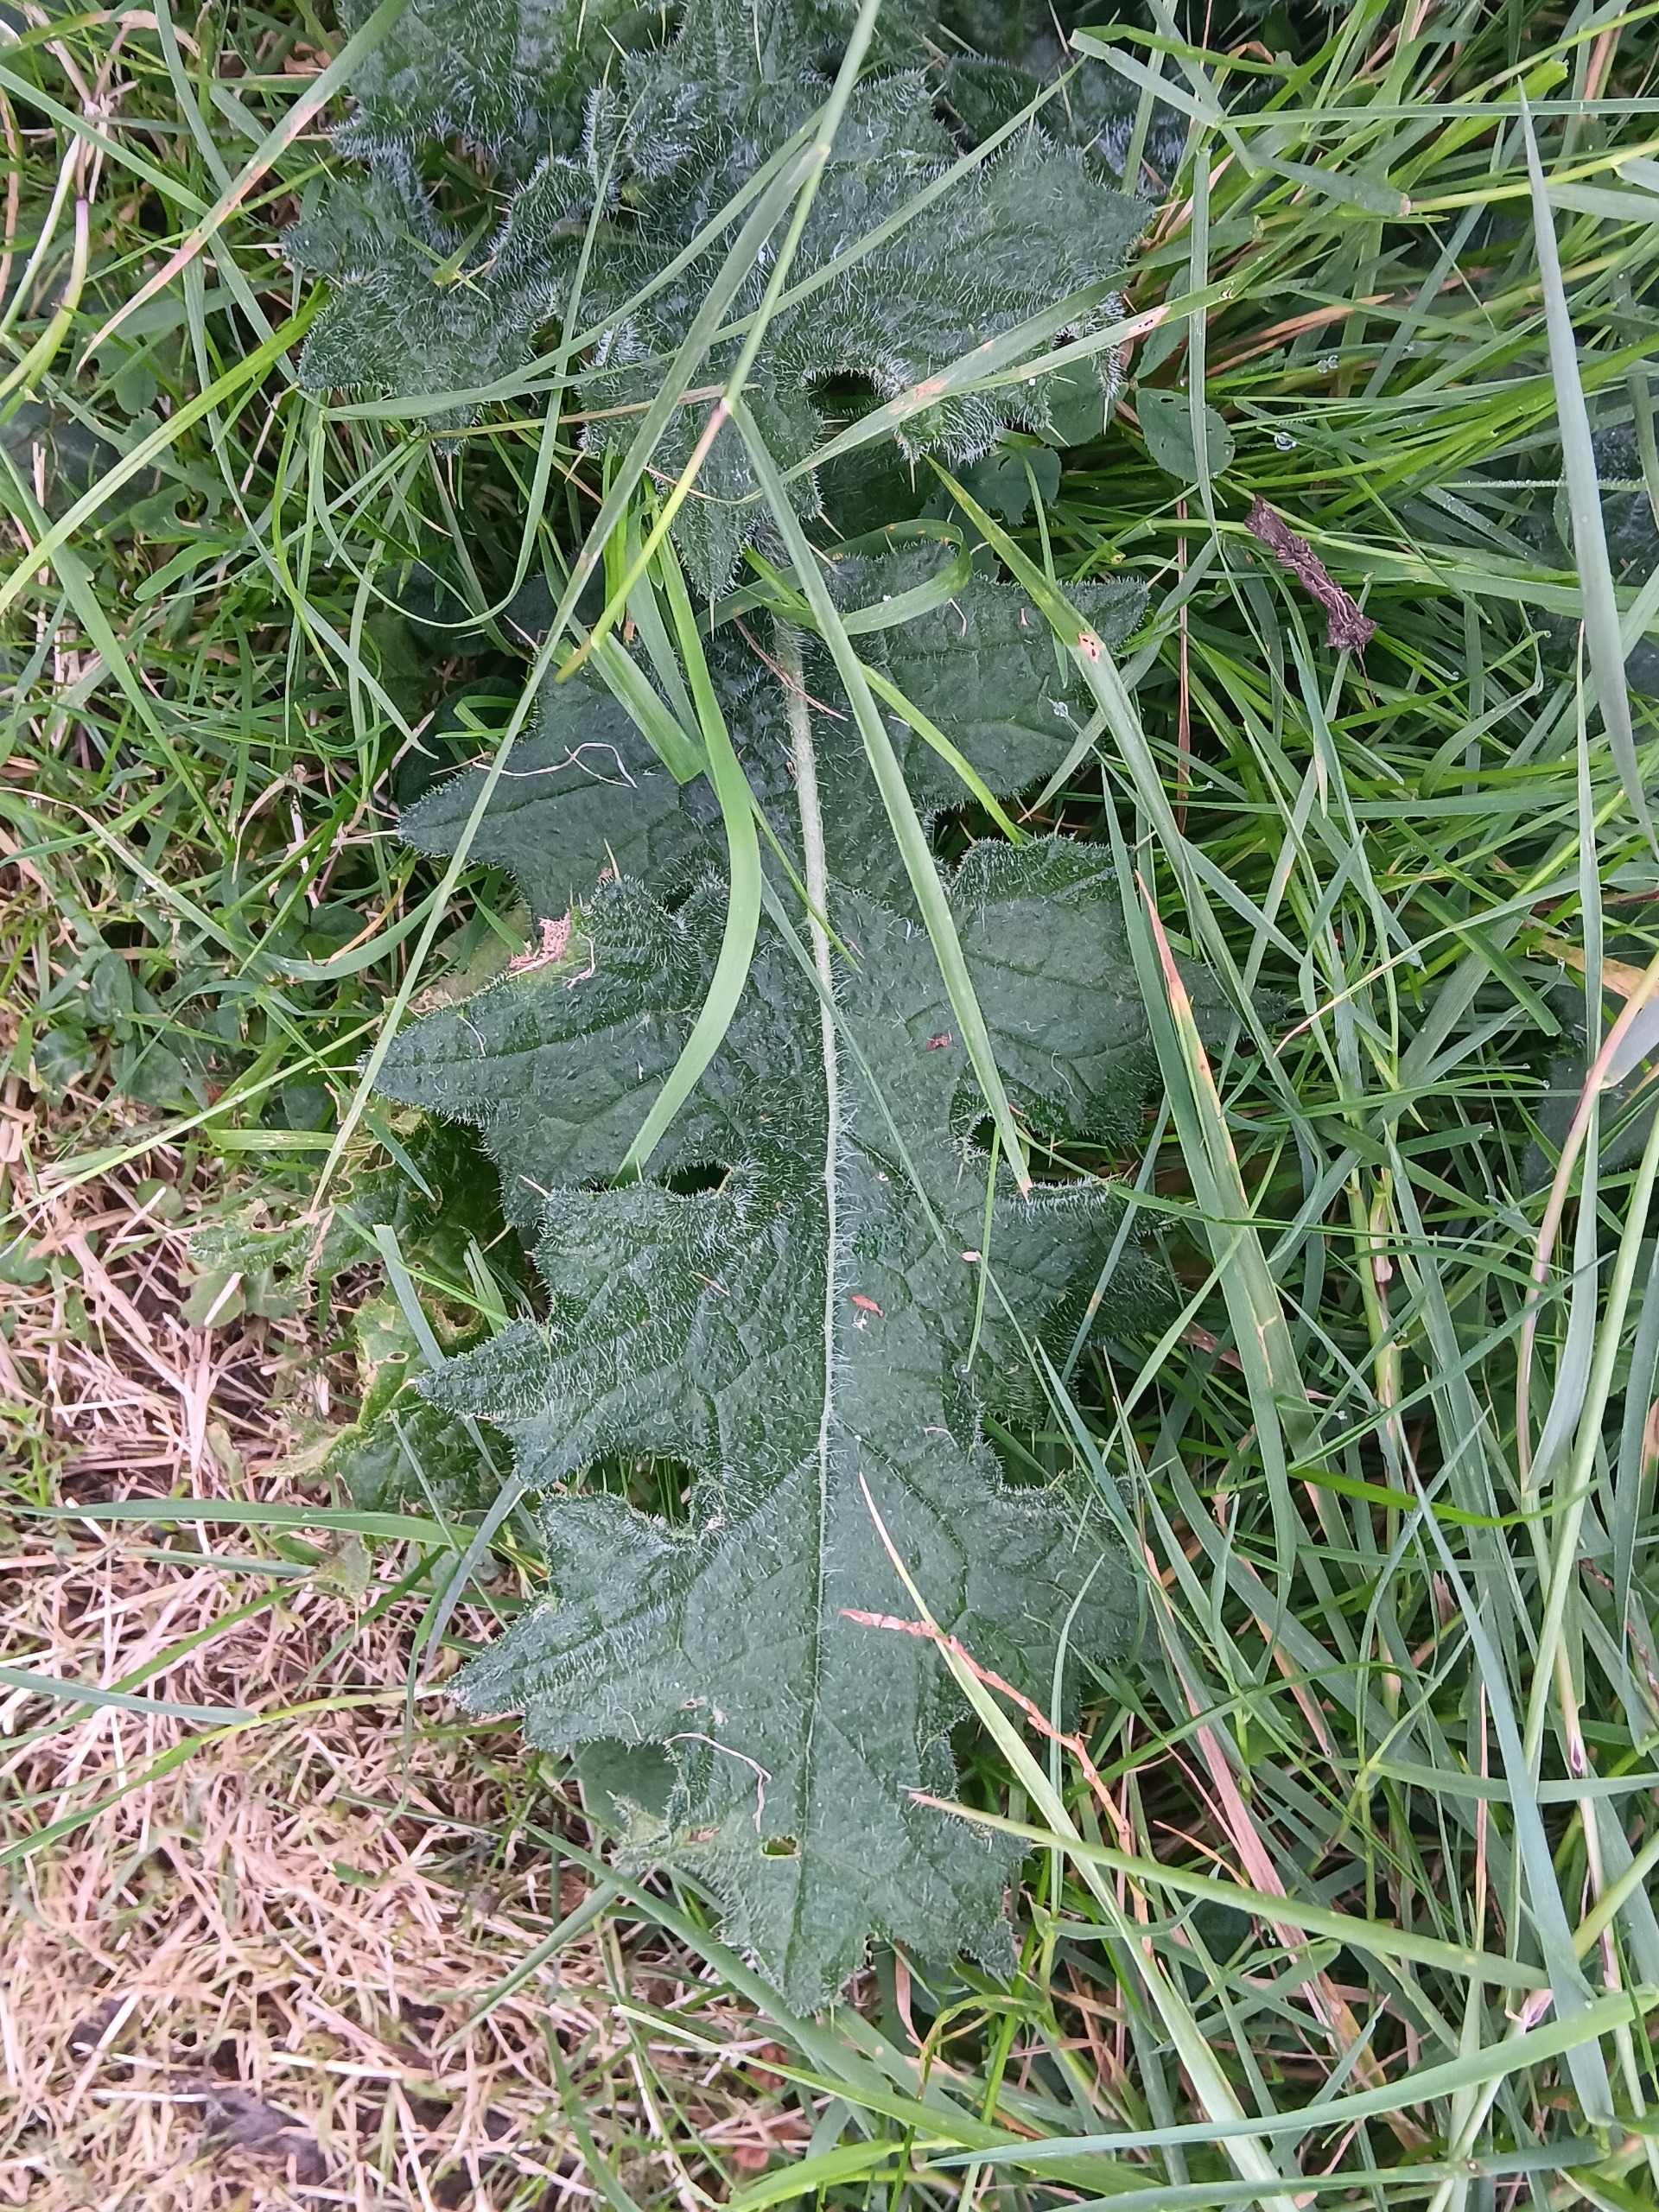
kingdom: Plantae
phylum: Tracheophyta
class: Magnoliopsida
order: Asterales
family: Asteraceae
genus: Cirsium
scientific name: Cirsium vulgare
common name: Horse-tidsel
